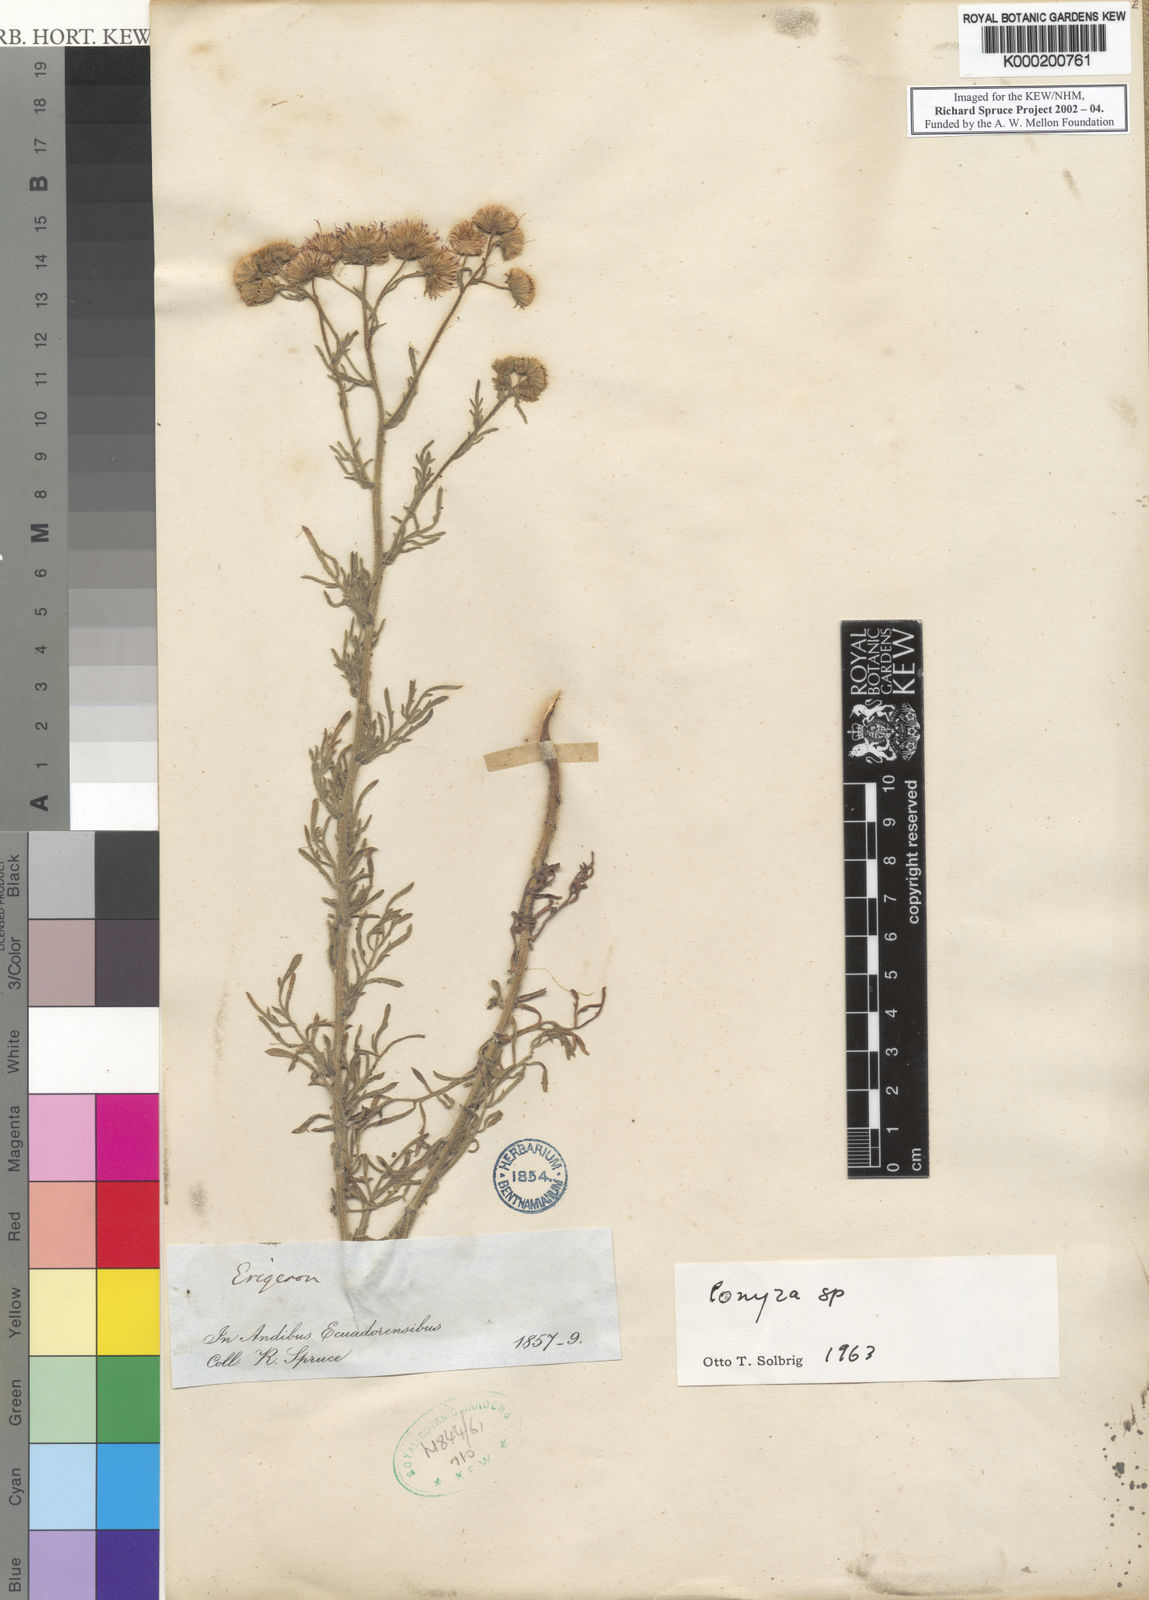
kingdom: Plantae
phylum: Tracheophyta
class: Magnoliopsida
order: Asterales
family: Asteraceae
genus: Conyza
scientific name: Conyza
